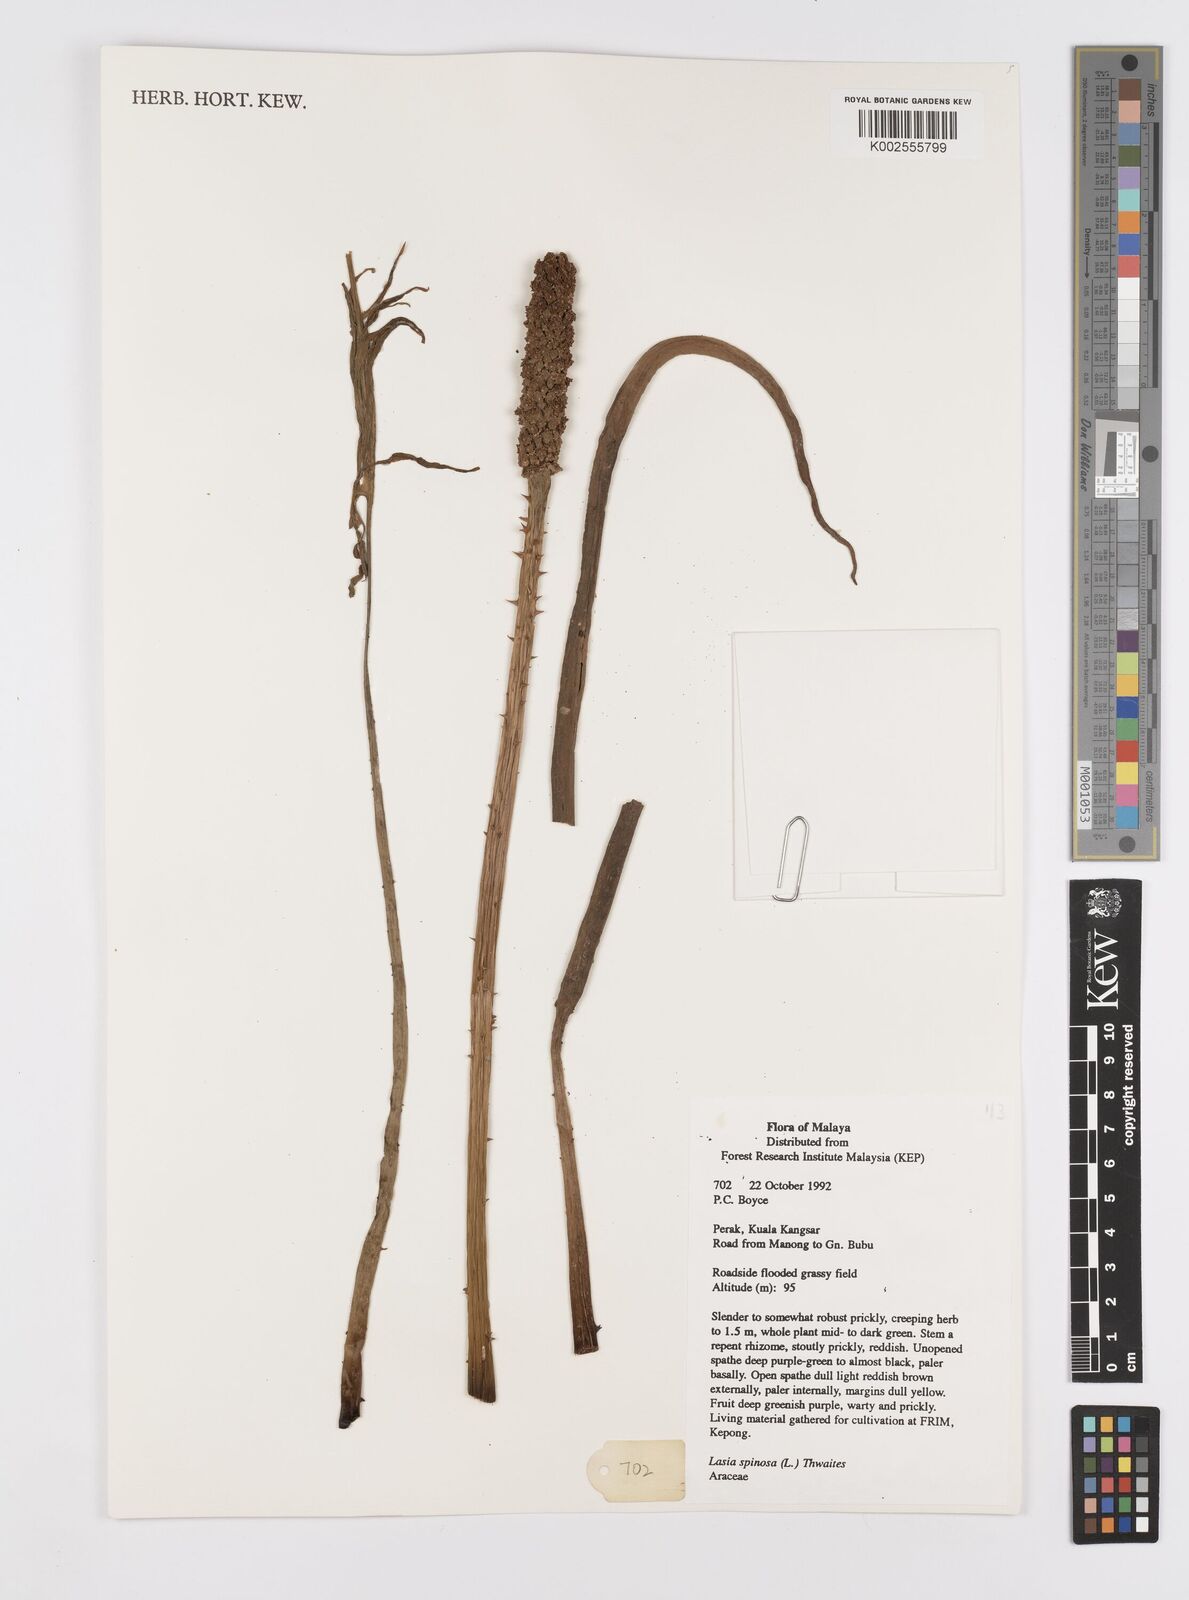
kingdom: Plantae
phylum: Tracheophyta
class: Liliopsida
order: Alismatales
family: Araceae
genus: Lasia
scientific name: Lasia spinosa
